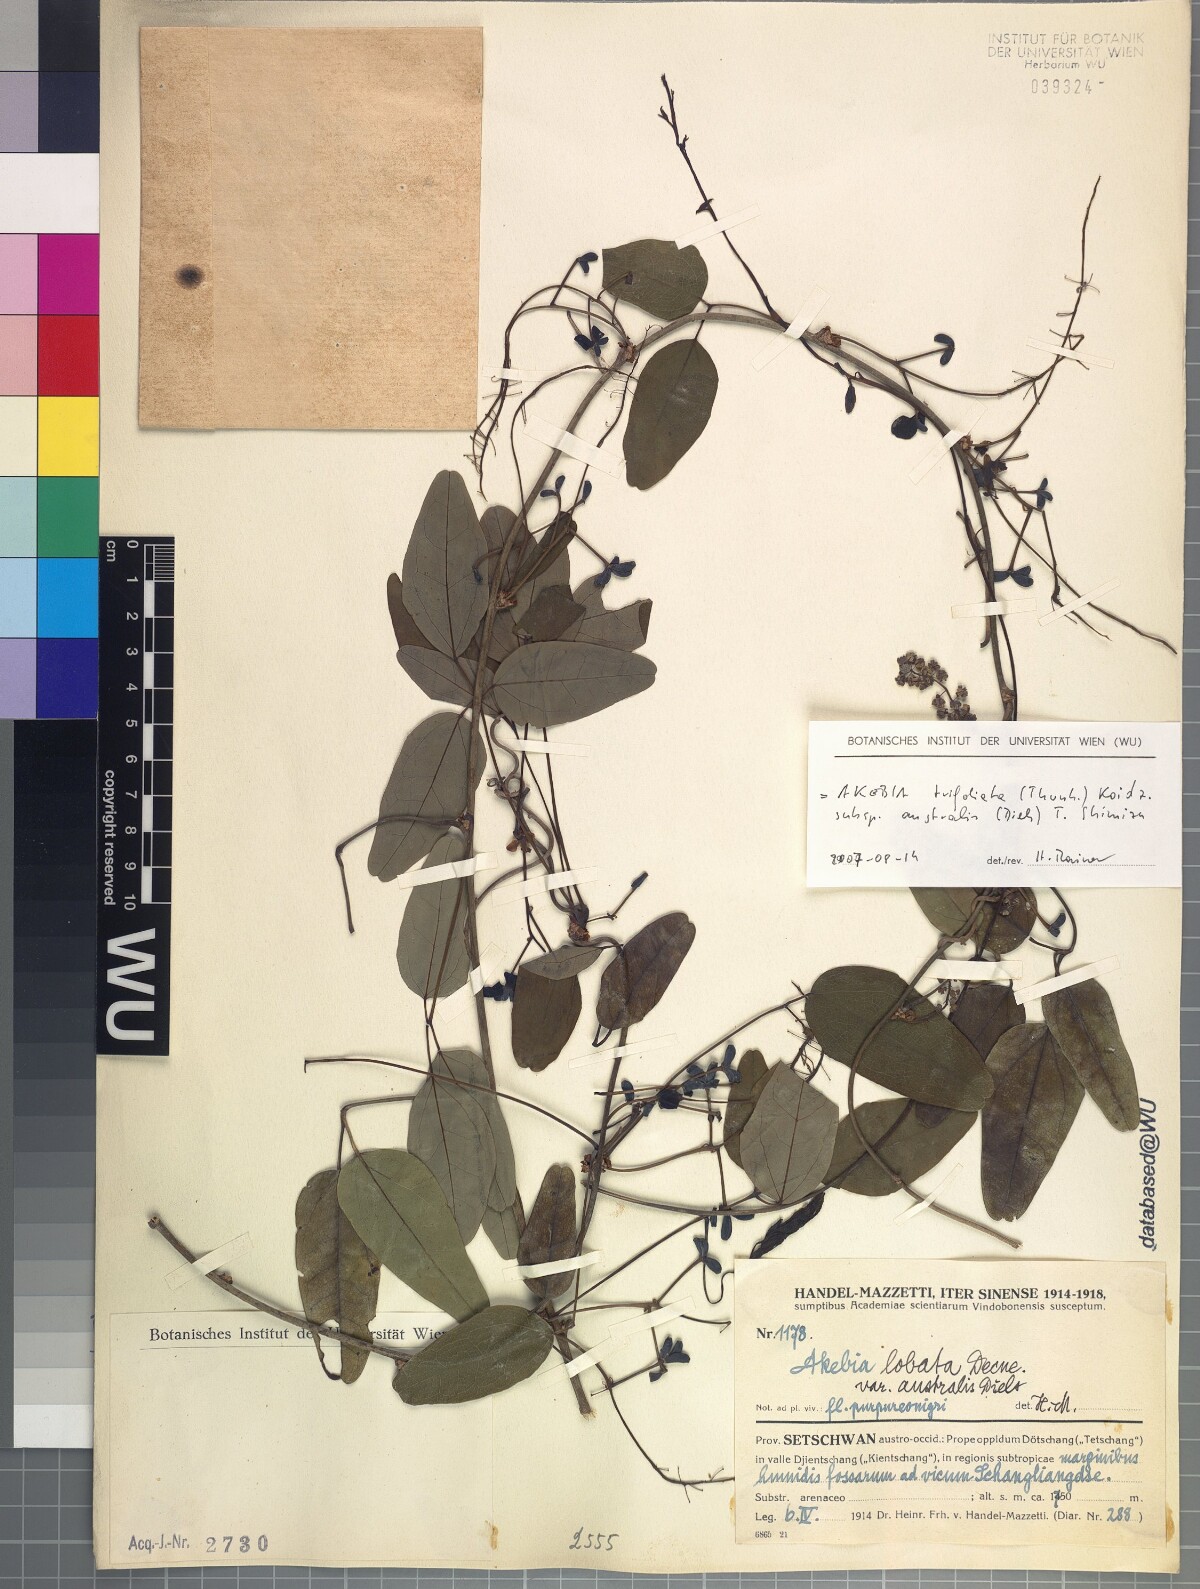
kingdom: Plantae
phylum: Tracheophyta
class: Magnoliopsida
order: Ranunculales
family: Lardizabalaceae
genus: Akebia
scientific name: Akebia trifoliata
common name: Chocolate-vine
